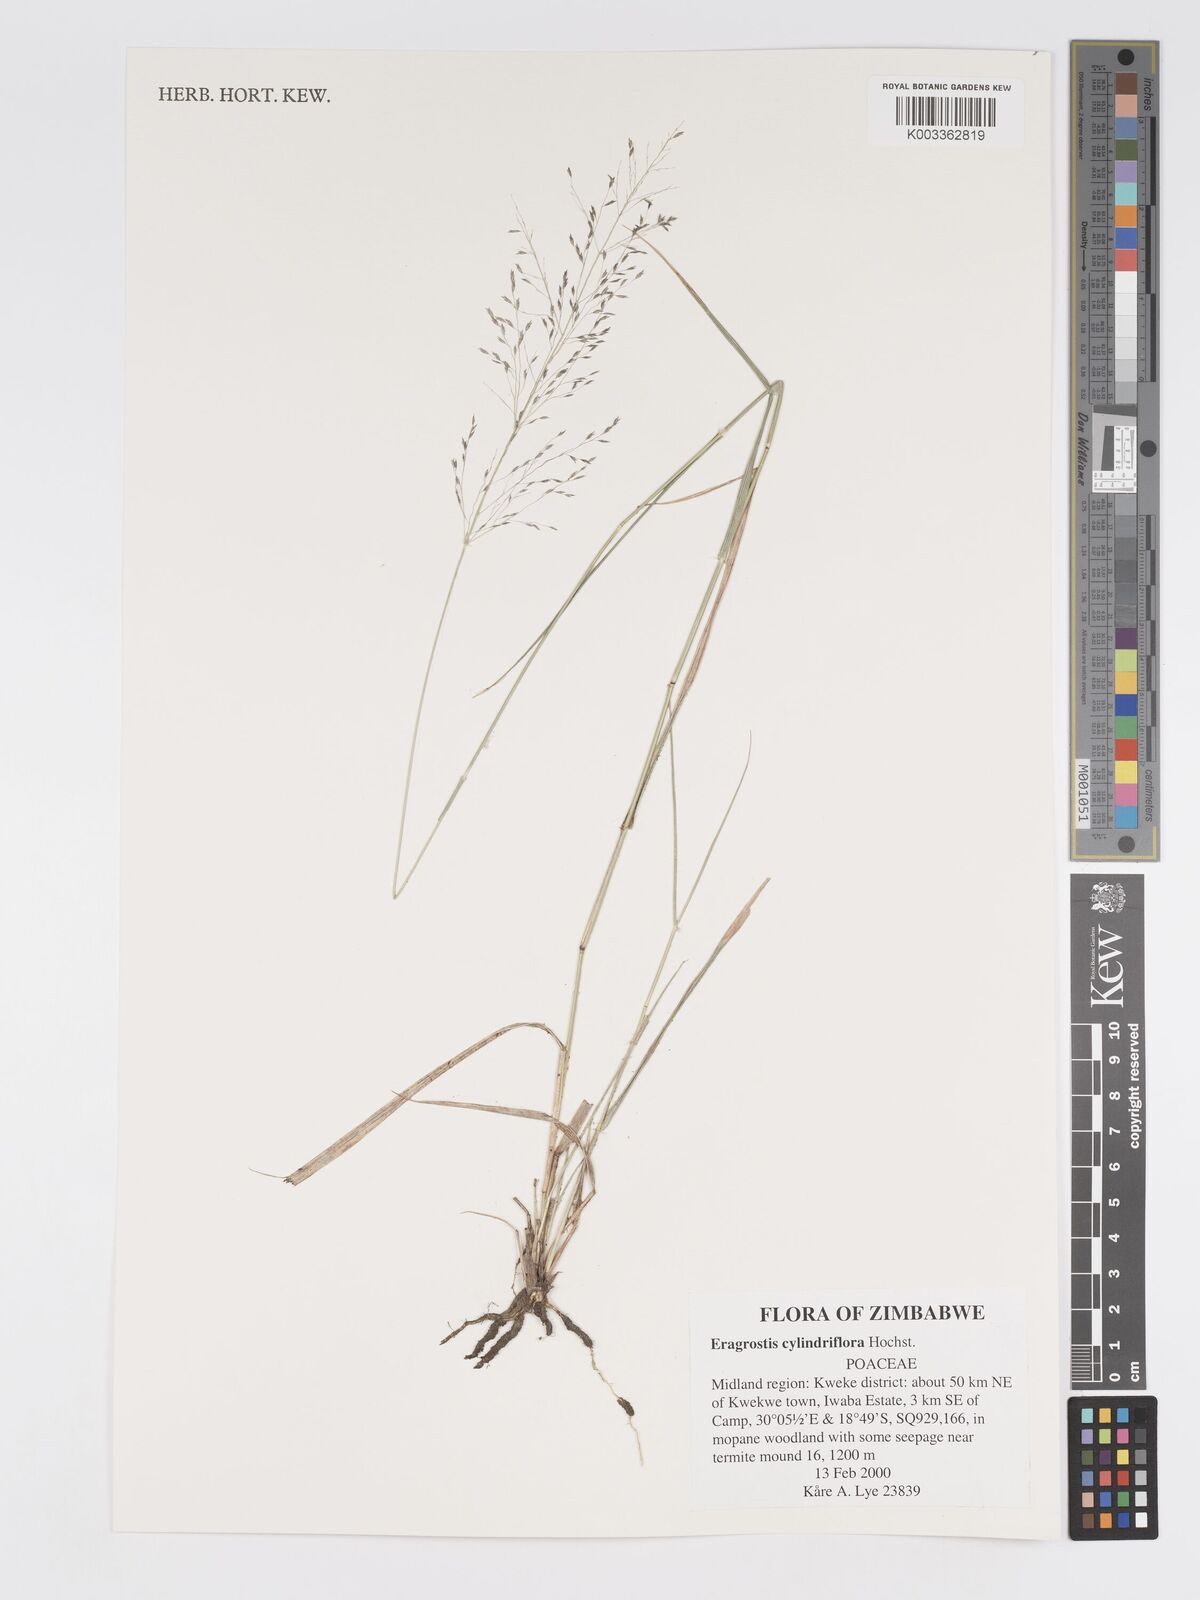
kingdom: Plantae
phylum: Tracheophyta
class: Liliopsida
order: Poales
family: Poaceae
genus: Eragrostis
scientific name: Eragrostis cylindriflora
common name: Cylinderflower lovegrass
